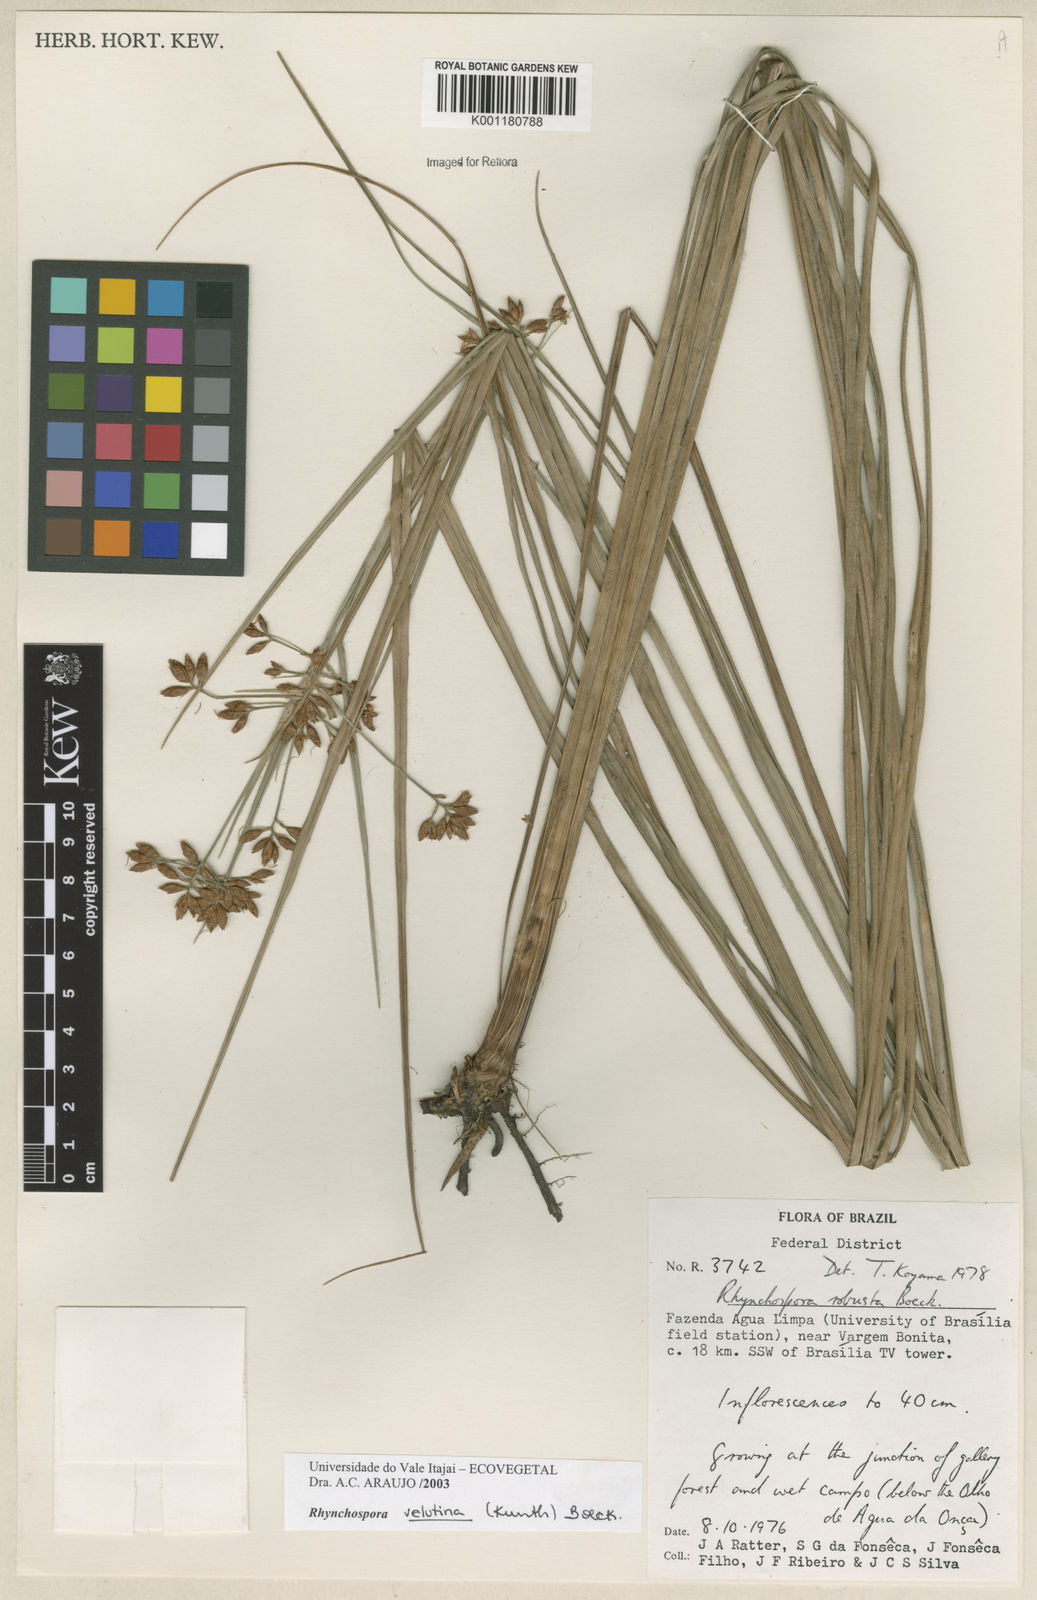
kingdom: Plantae
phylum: Tracheophyta
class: Liliopsida
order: Poales
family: Cyperaceae
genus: Rhynchospora
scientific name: Rhynchospora velutina
